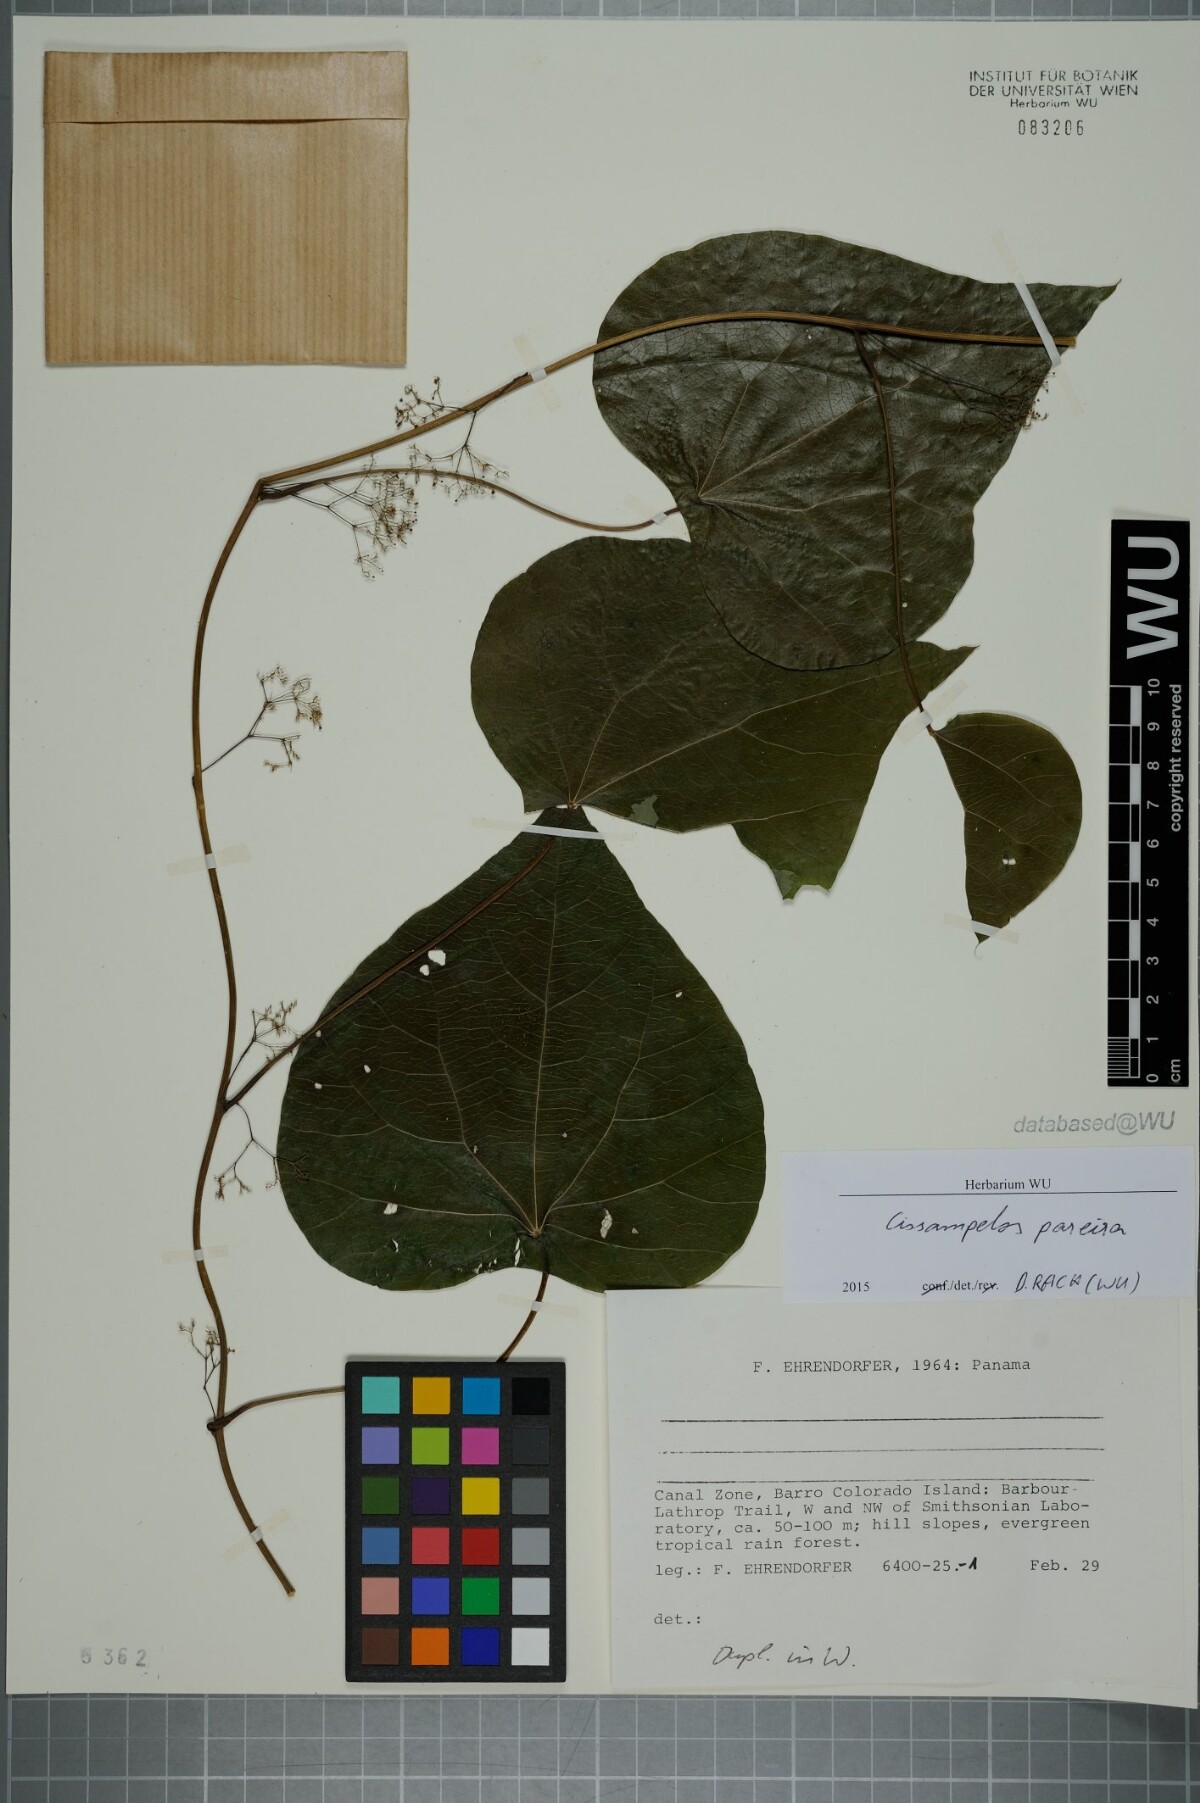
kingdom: Plantae
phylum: Tracheophyta
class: Magnoliopsida
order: Ranunculales
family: Menispermaceae
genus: Cissampelos
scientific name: Cissampelos pareira
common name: Velvetleaf
